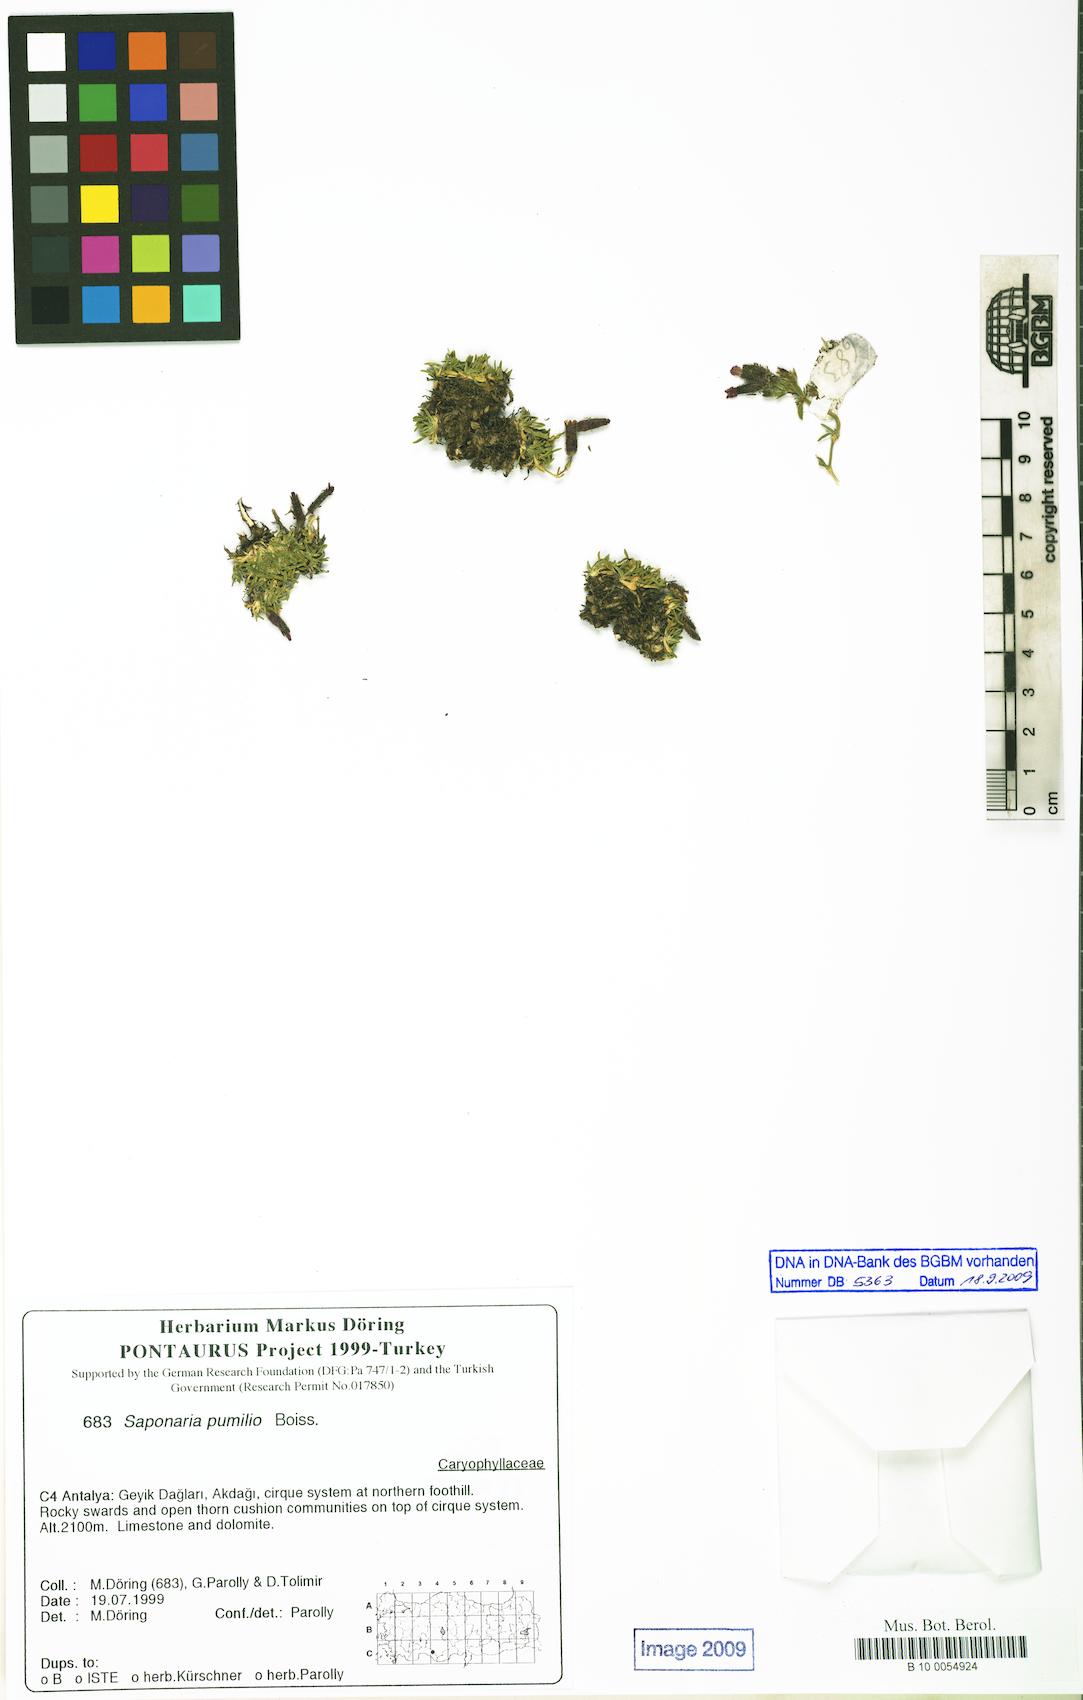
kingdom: Plantae
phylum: Tracheophyta
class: Magnoliopsida
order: Caryophyllales
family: Caryophyllaceae
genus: Saponaria
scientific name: Saponaria pumilio
